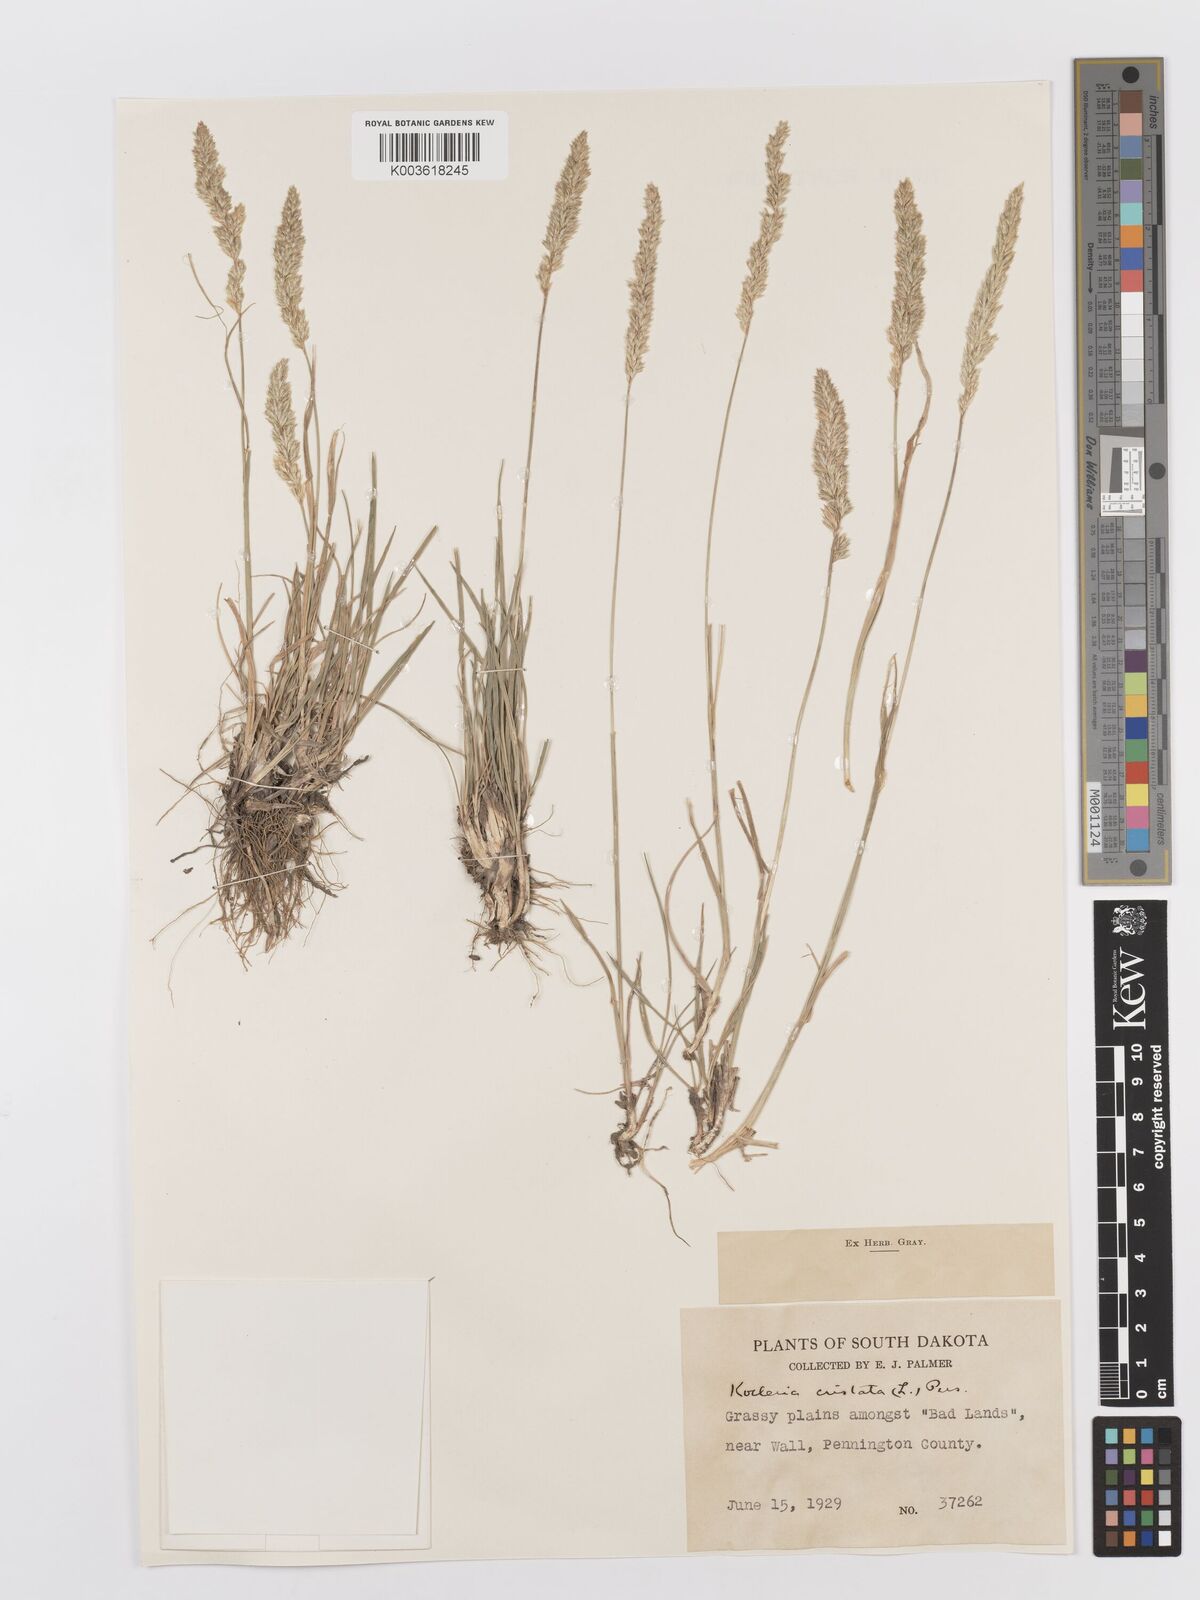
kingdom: Plantae
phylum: Tracheophyta
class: Liliopsida
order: Poales
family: Poaceae
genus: Koeleria
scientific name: Koeleria macrantha
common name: Crested hair-grass
